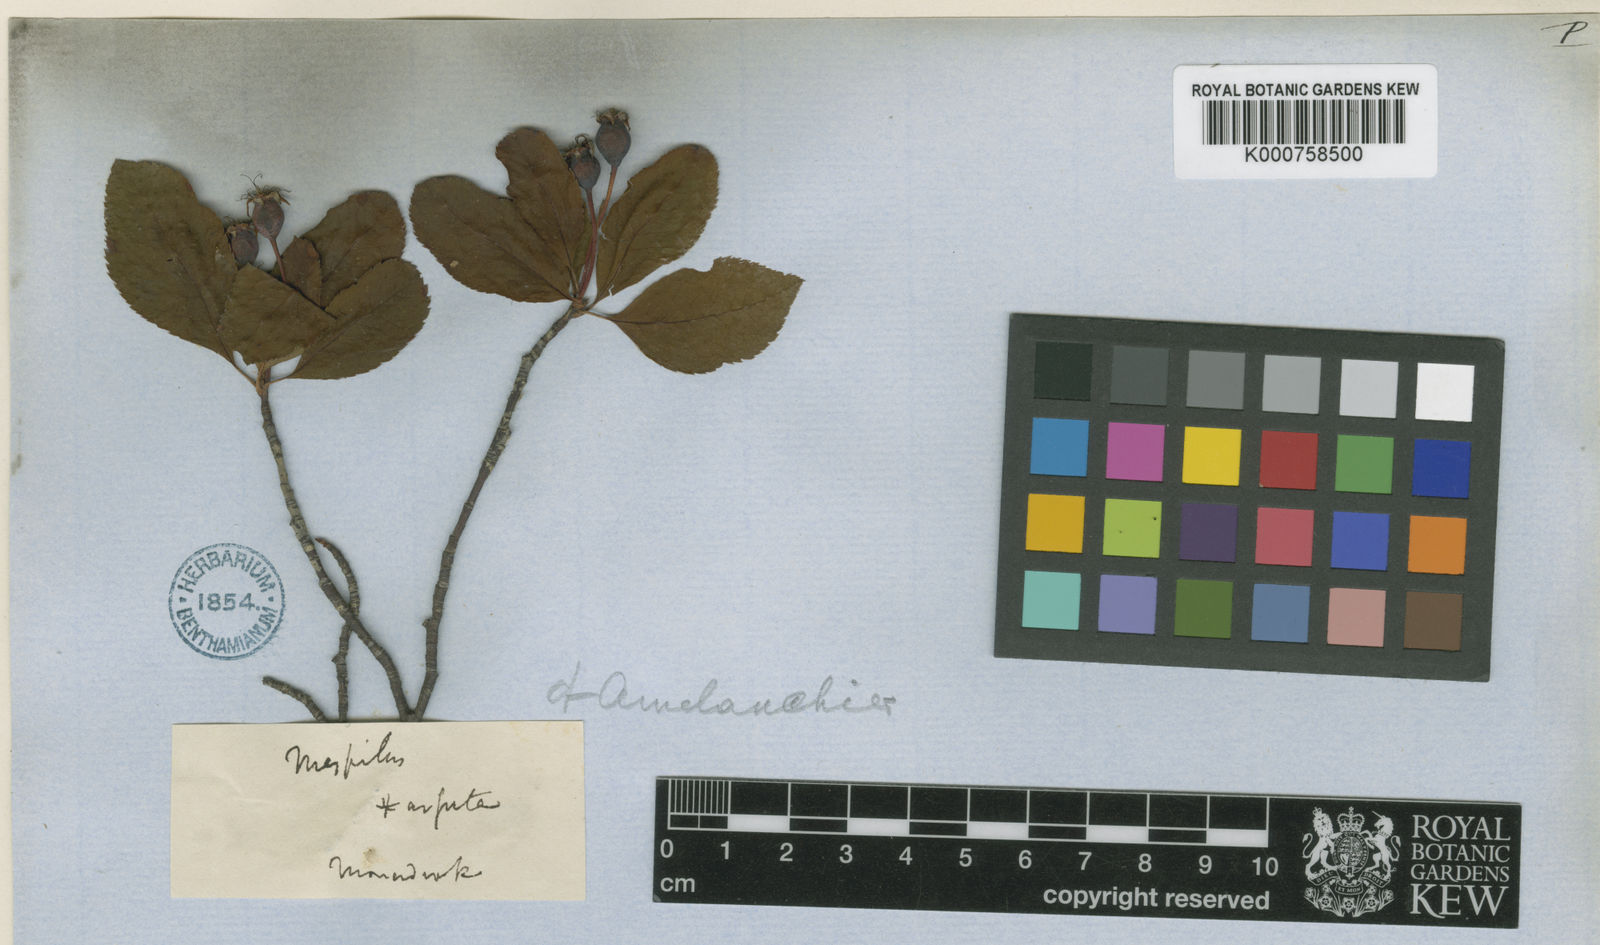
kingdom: Plantae
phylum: Tracheophyta
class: Magnoliopsida
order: Rosales
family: Rosaceae
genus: Amelanchier
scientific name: Amelanchier bartramiana
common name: Mountain serviceberry
